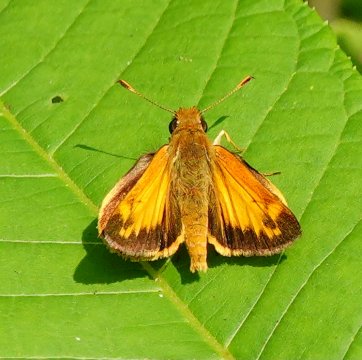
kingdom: Animalia
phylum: Arthropoda
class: Insecta
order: Lepidoptera
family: Hesperiidae
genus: Lon
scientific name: Lon zabulon
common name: Zabulon Skipper
